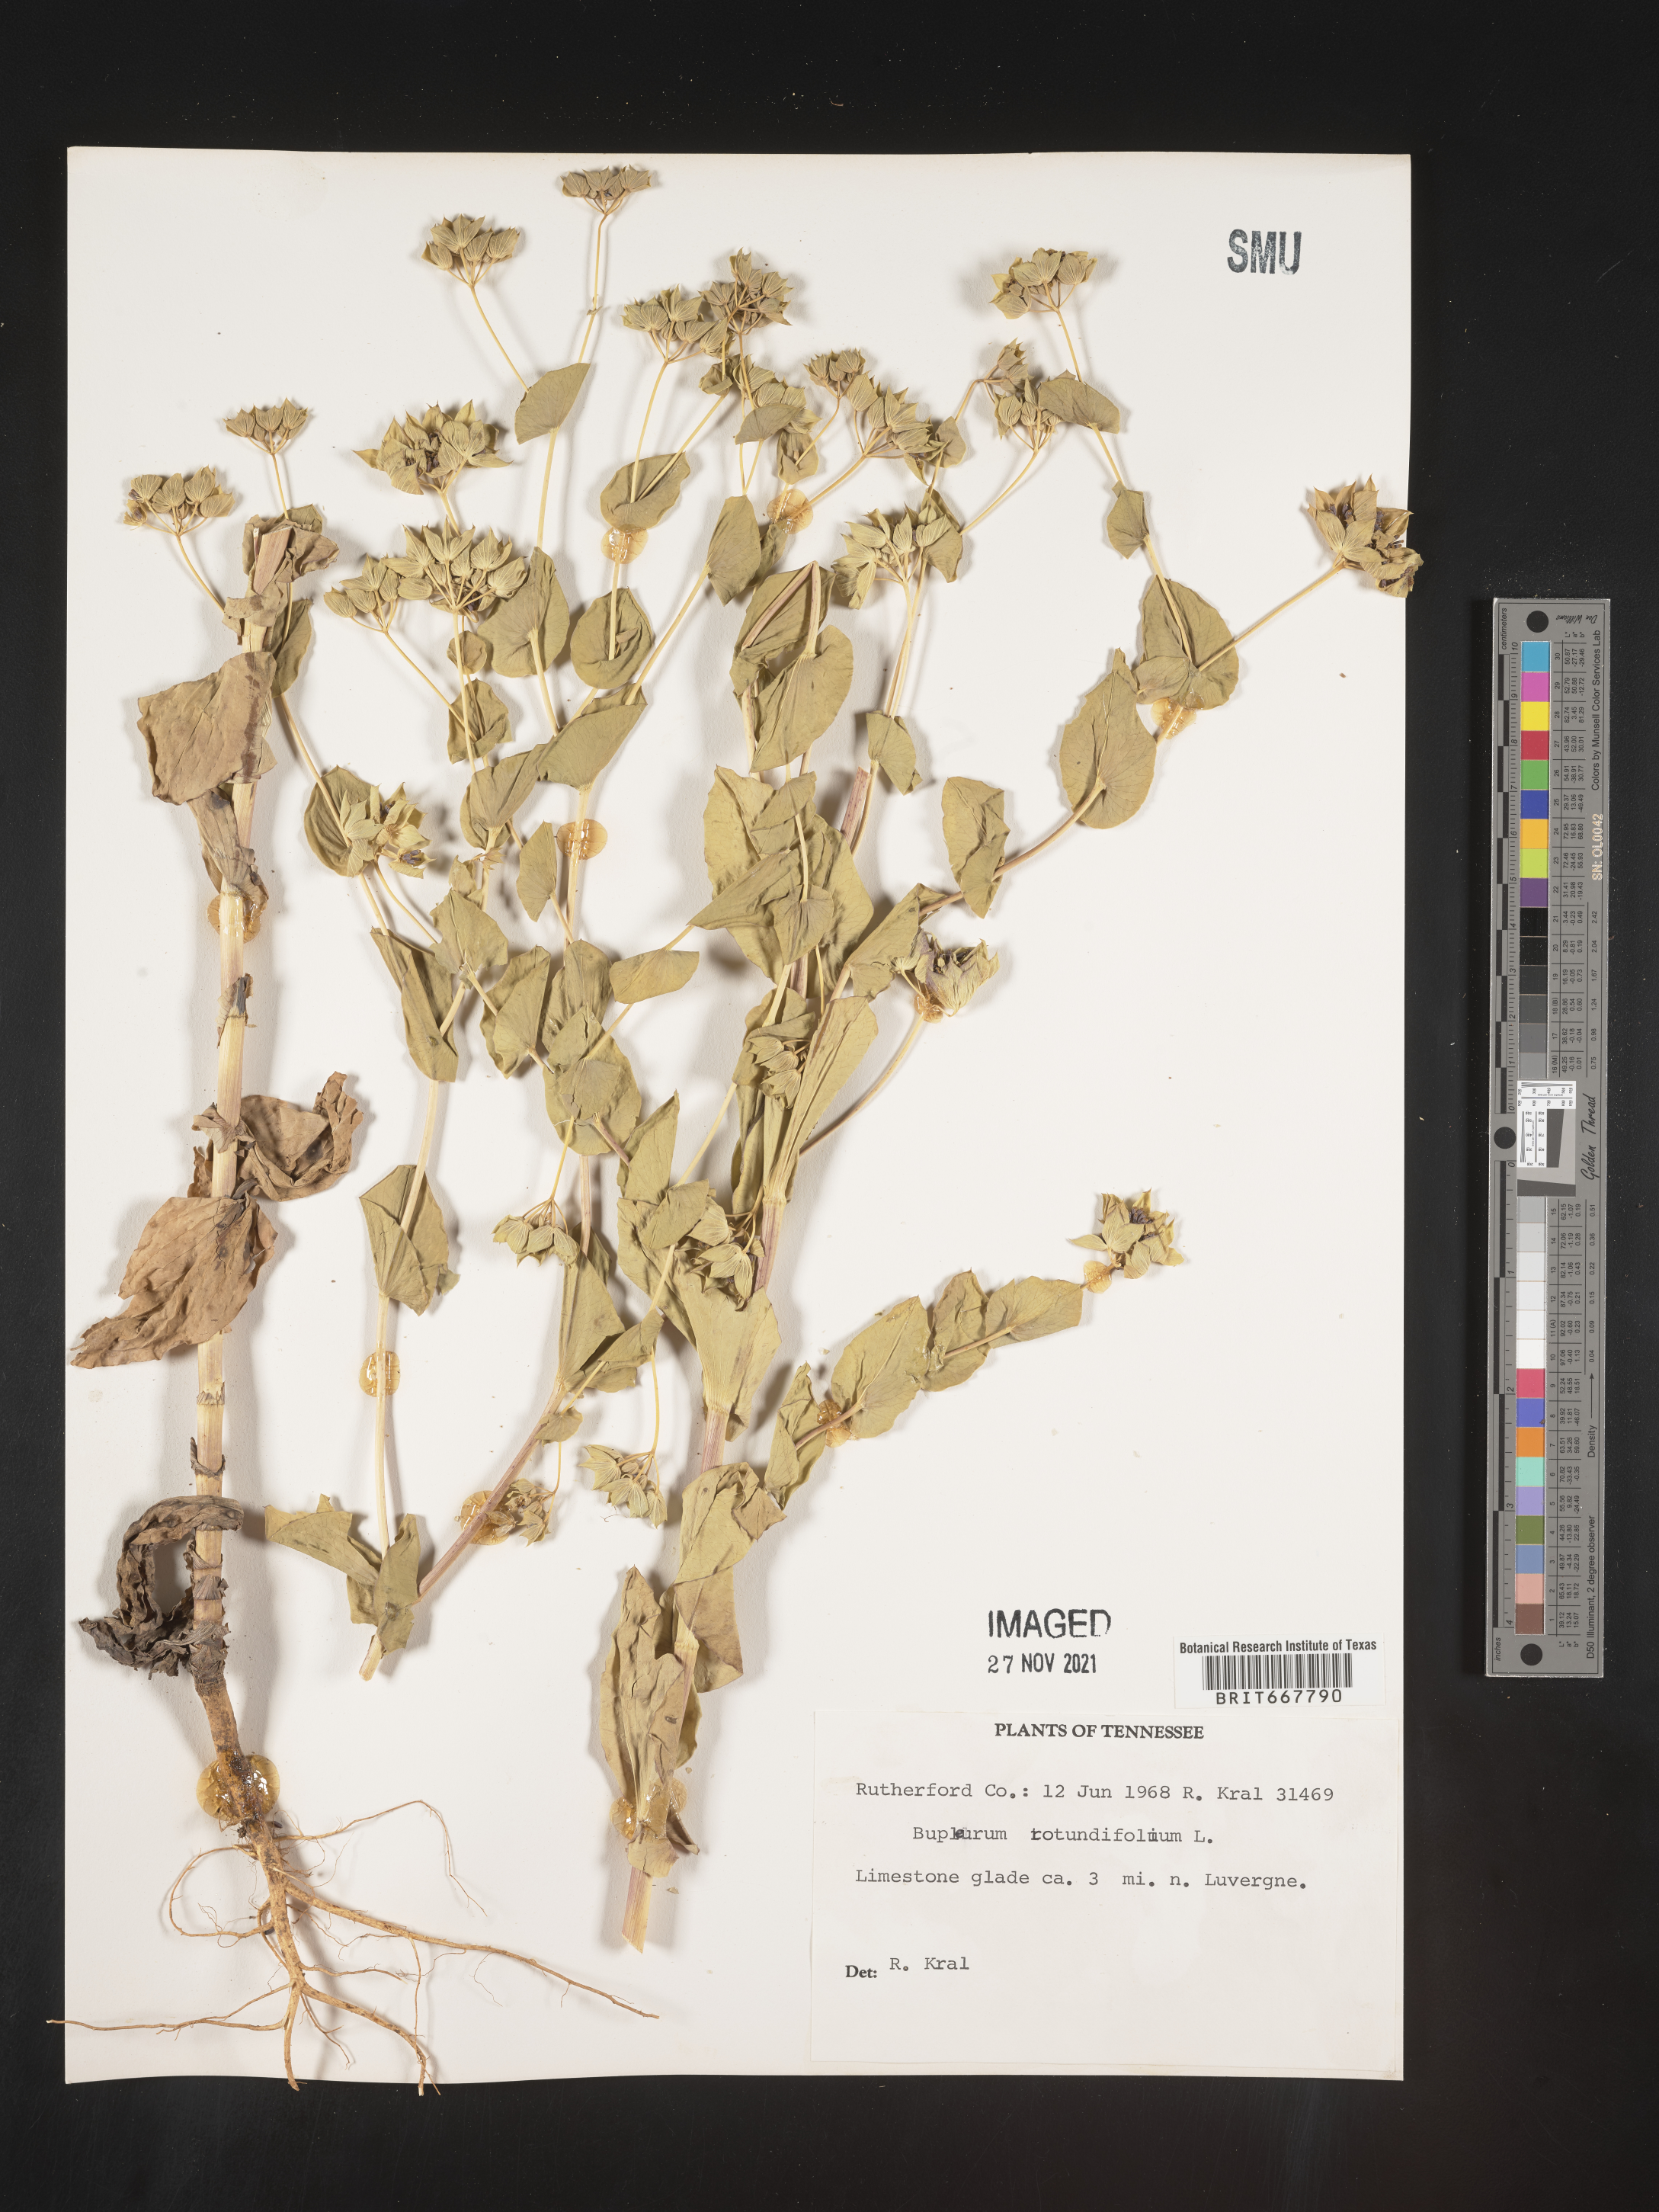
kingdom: Plantae
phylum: Tracheophyta
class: Magnoliopsida
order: Apiales
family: Apiaceae
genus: Bupleurum
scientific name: Bupleurum
